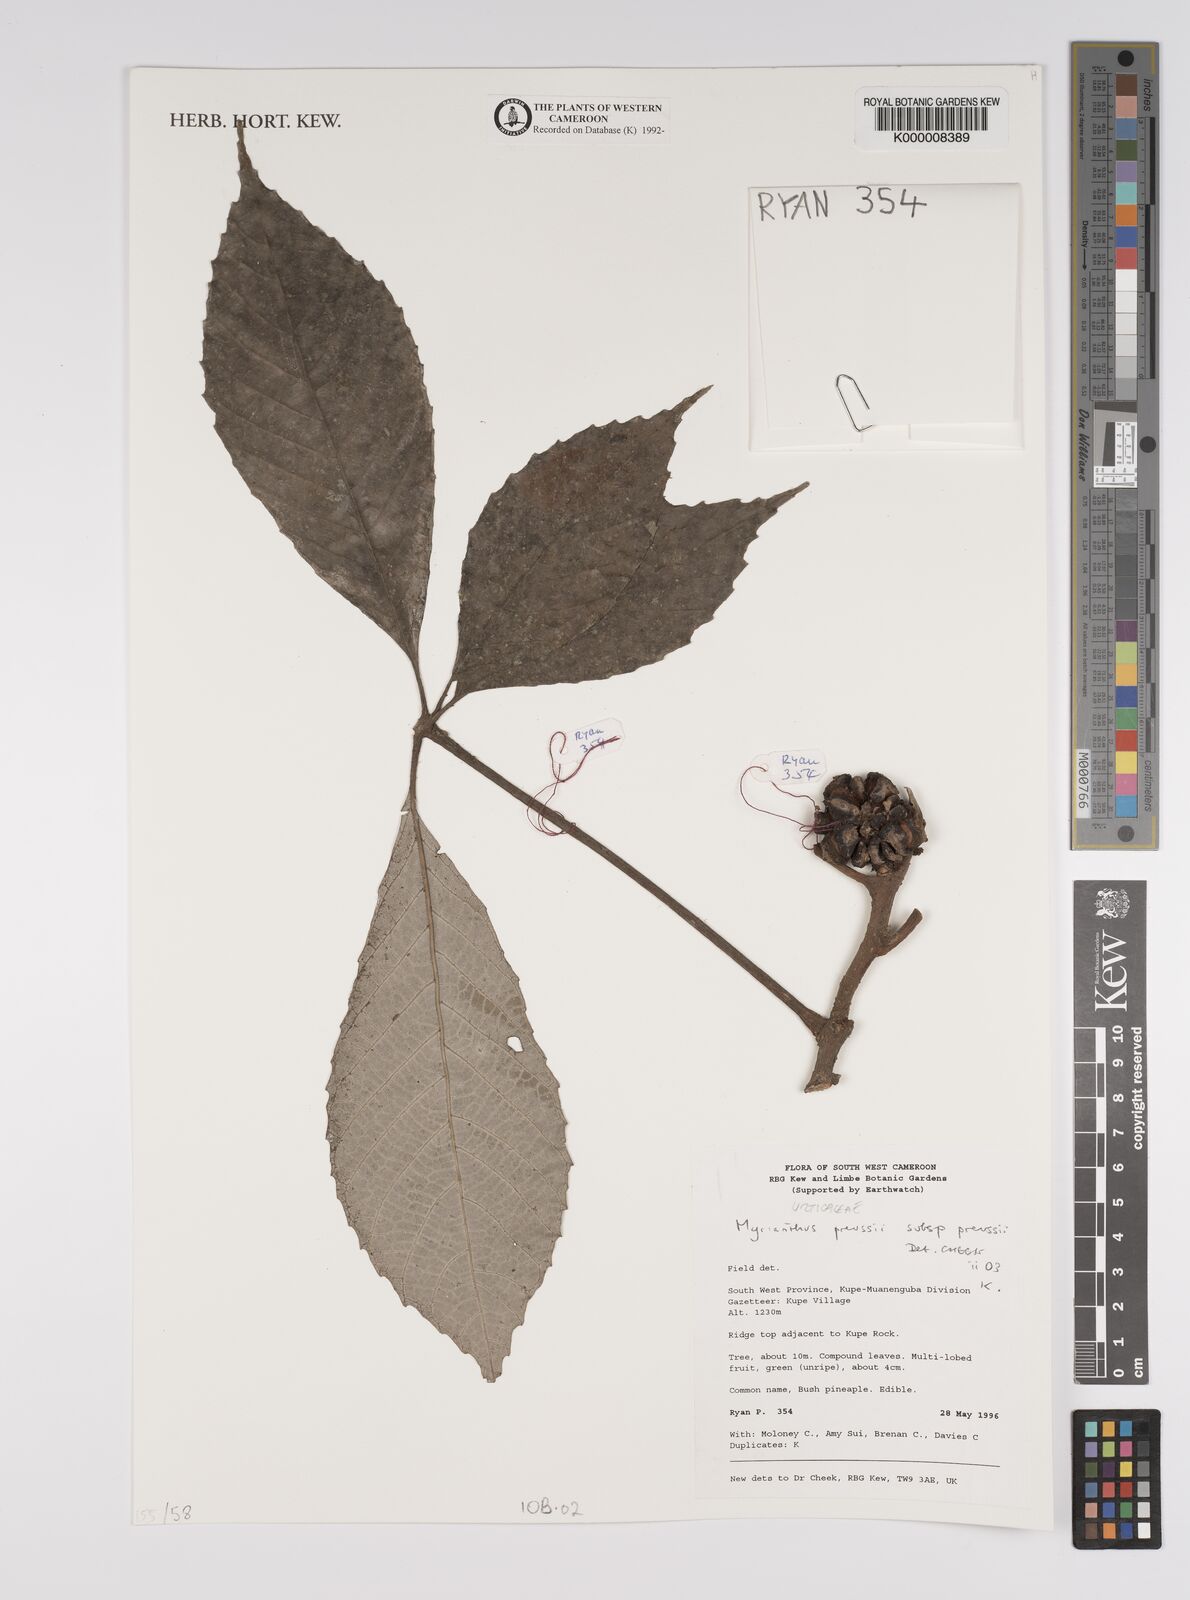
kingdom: Plantae
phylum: Tracheophyta
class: Magnoliopsida
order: Rosales
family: Urticaceae
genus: Myrianthus
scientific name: Myrianthus preussii
